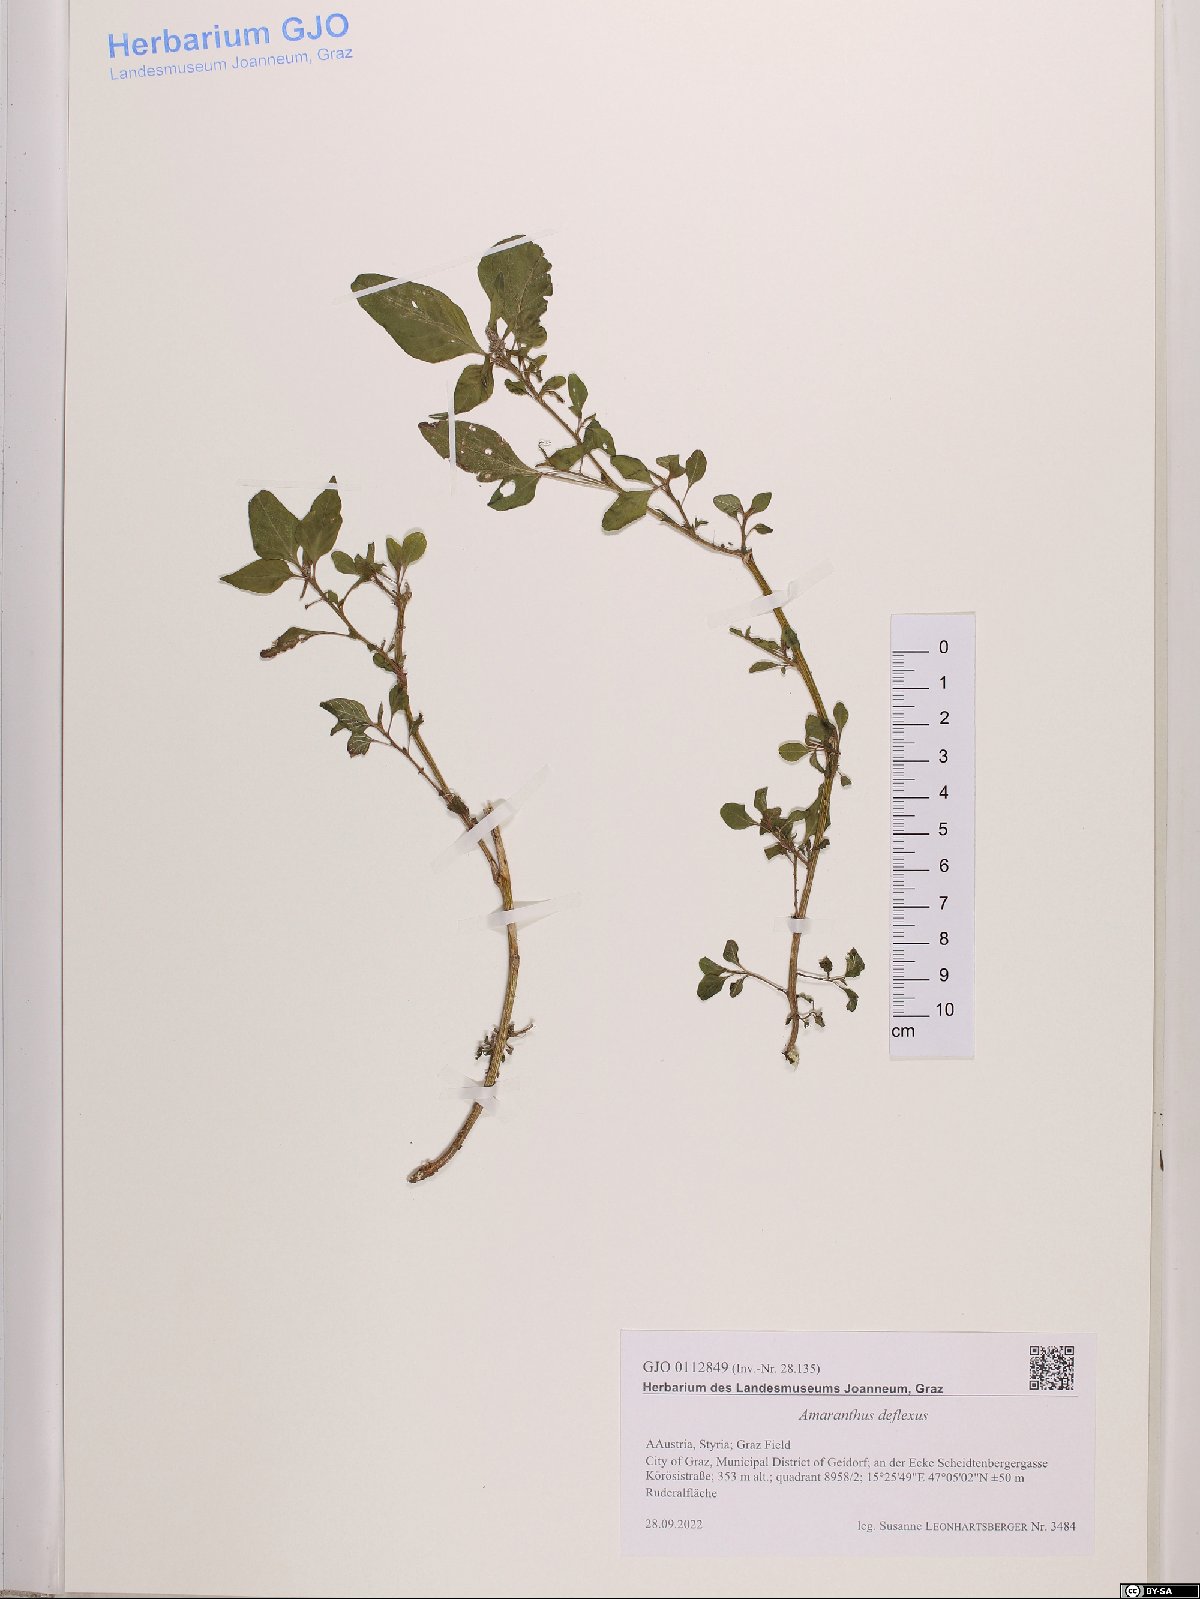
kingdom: Plantae
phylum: Tracheophyta
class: Magnoliopsida
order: Caryophyllales
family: Amaranthaceae
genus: Amaranthus
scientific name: Amaranthus deflexus
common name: Perennial pigweed
